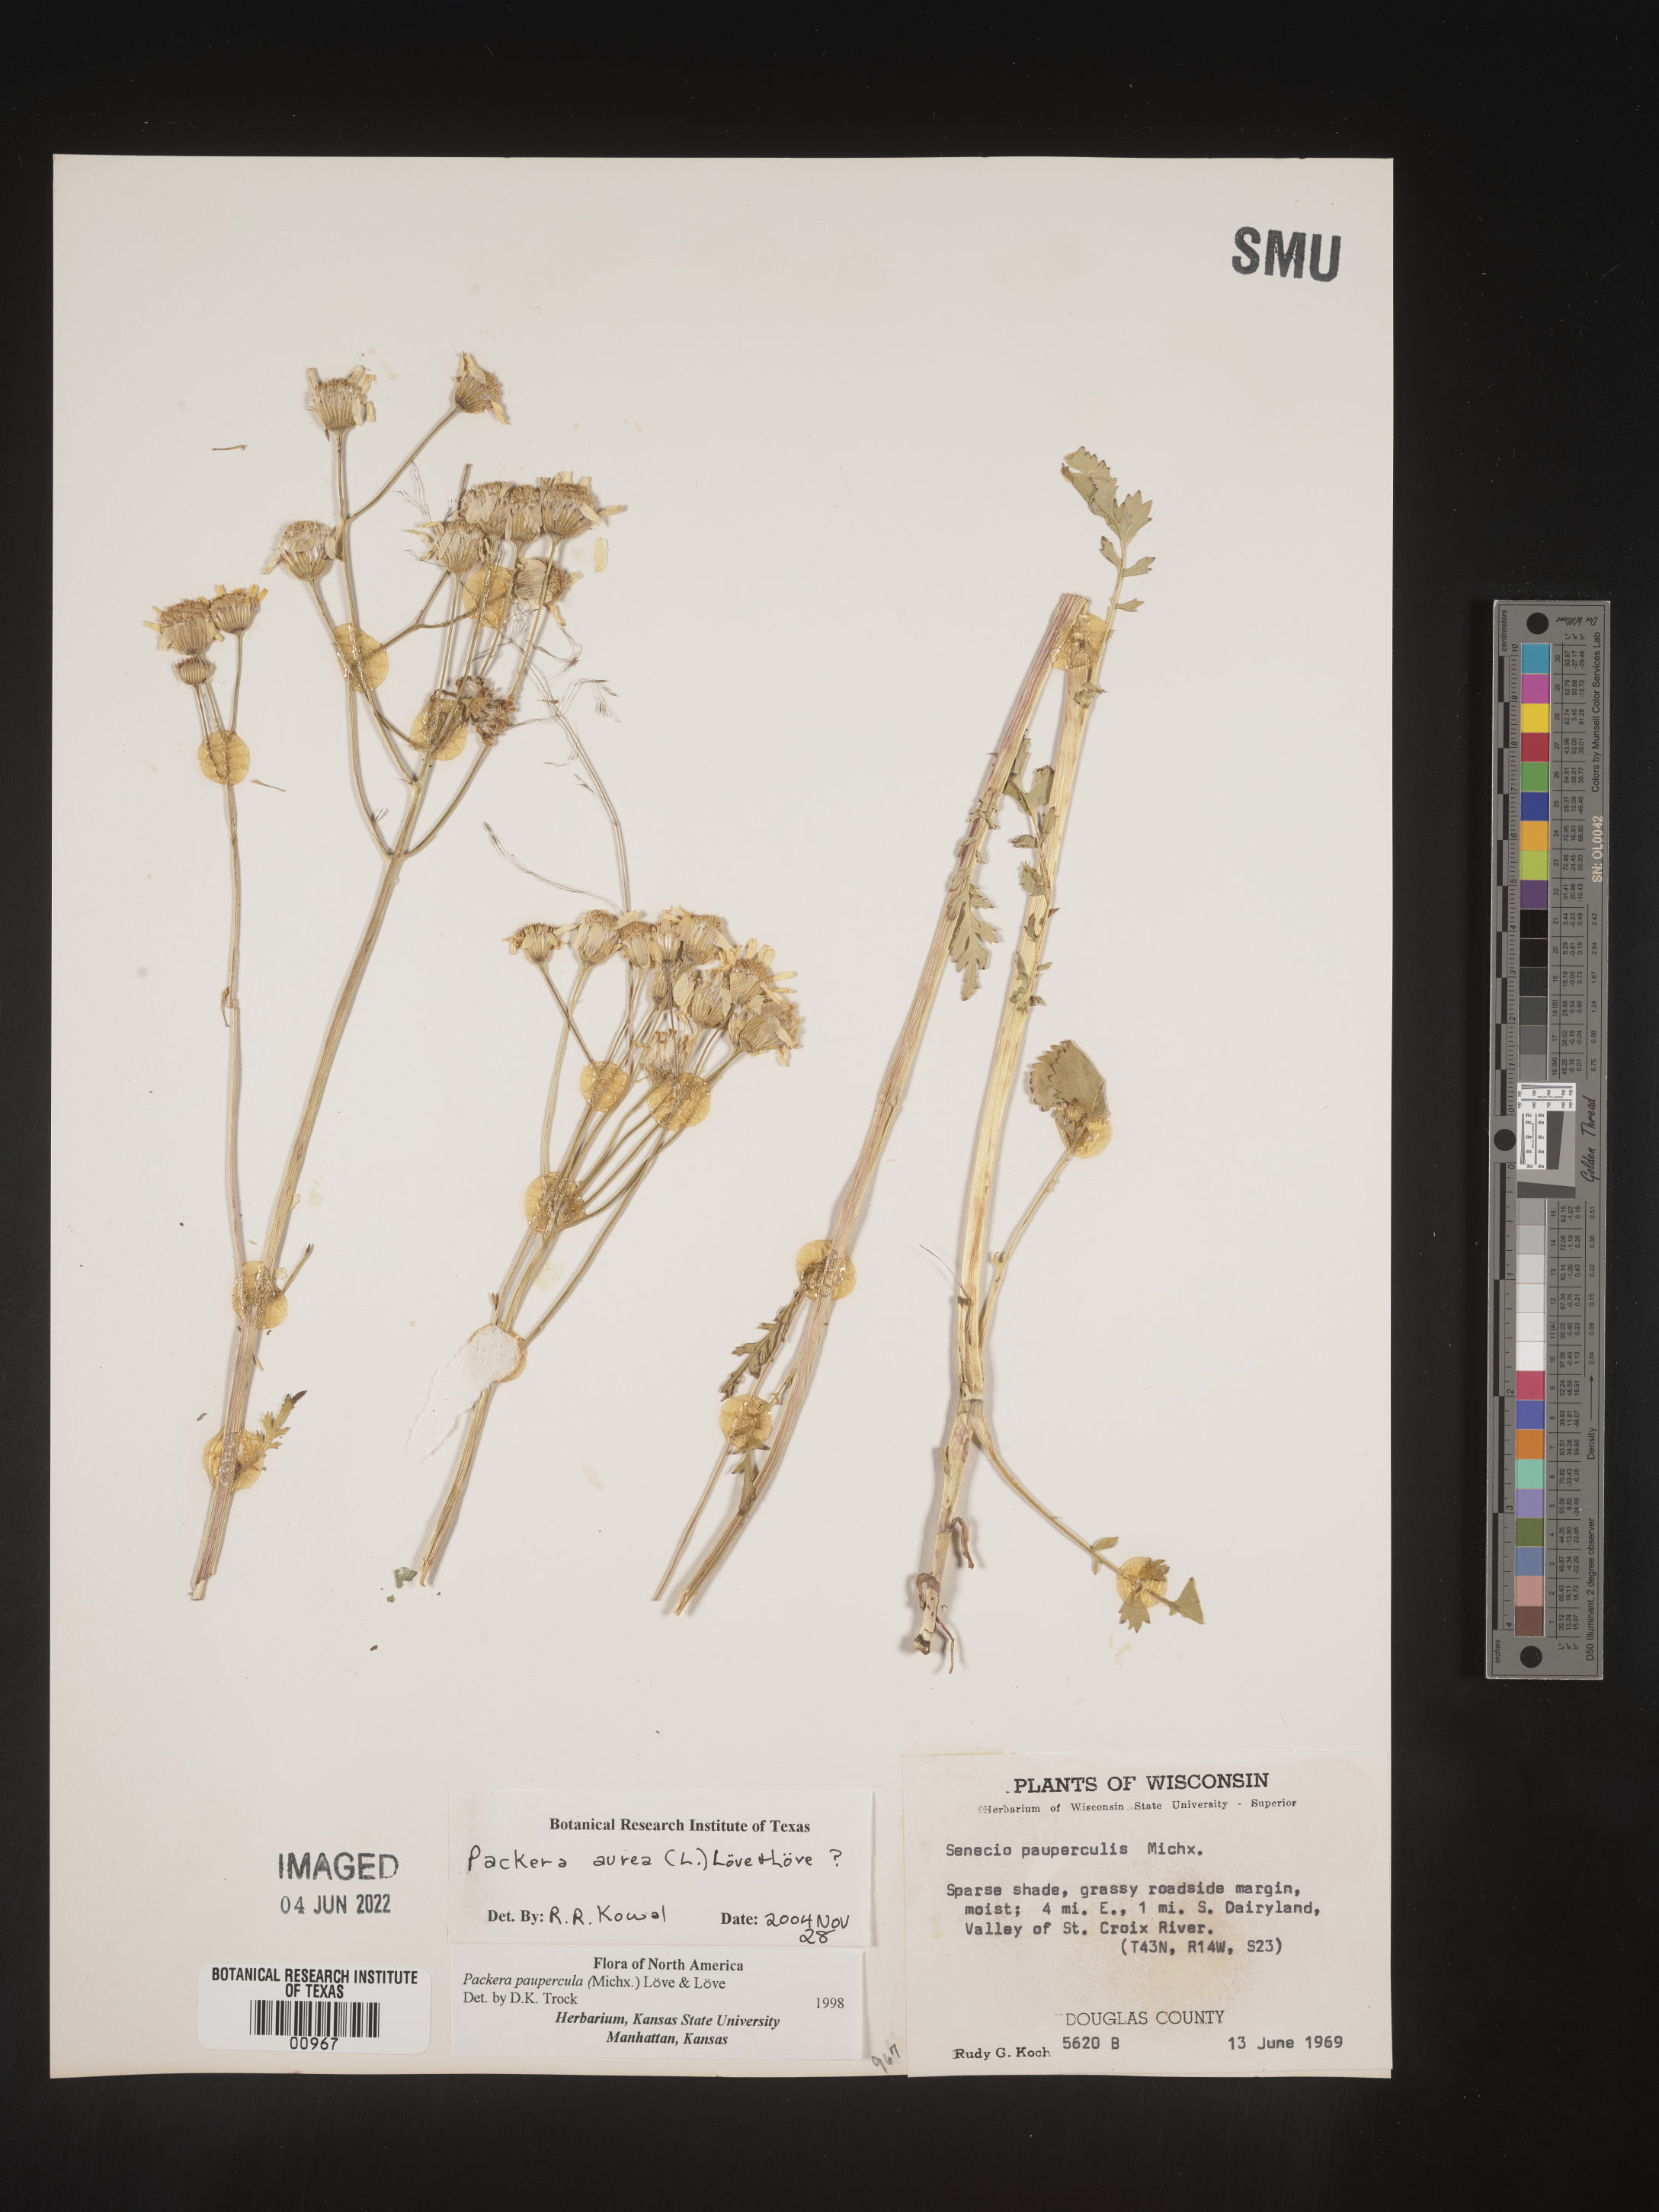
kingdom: Plantae
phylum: Tracheophyta
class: Magnoliopsida
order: Asterales
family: Asteraceae
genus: Packera
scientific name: Packera aurea
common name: Golden groundsel
